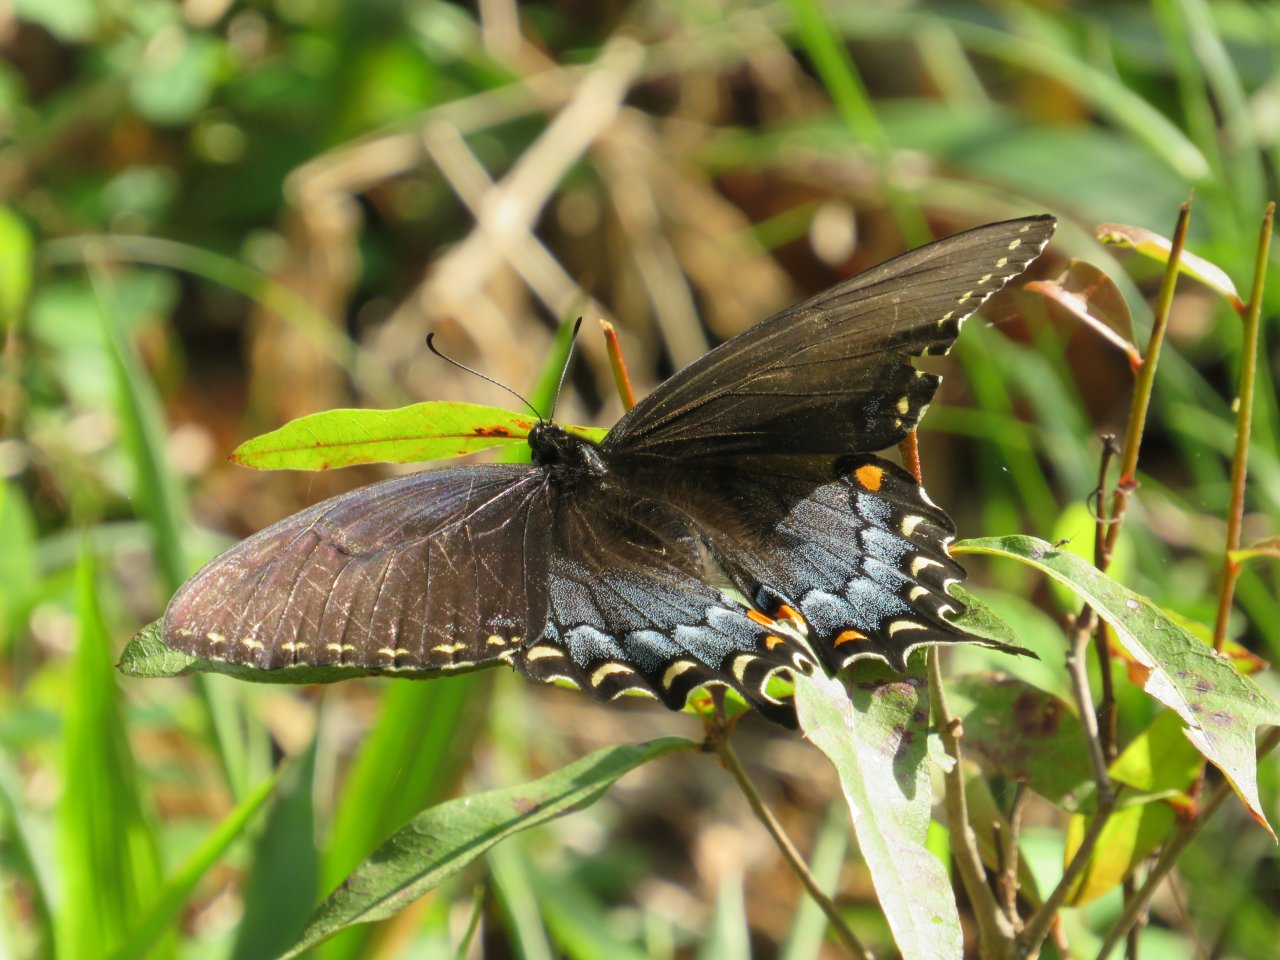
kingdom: Animalia
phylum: Arthropoda
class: Insecta
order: Lepidoptera
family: Papilionidae
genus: Pterourus
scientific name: Pterourus glaucus
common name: Eastern Tiger Swallowtail
